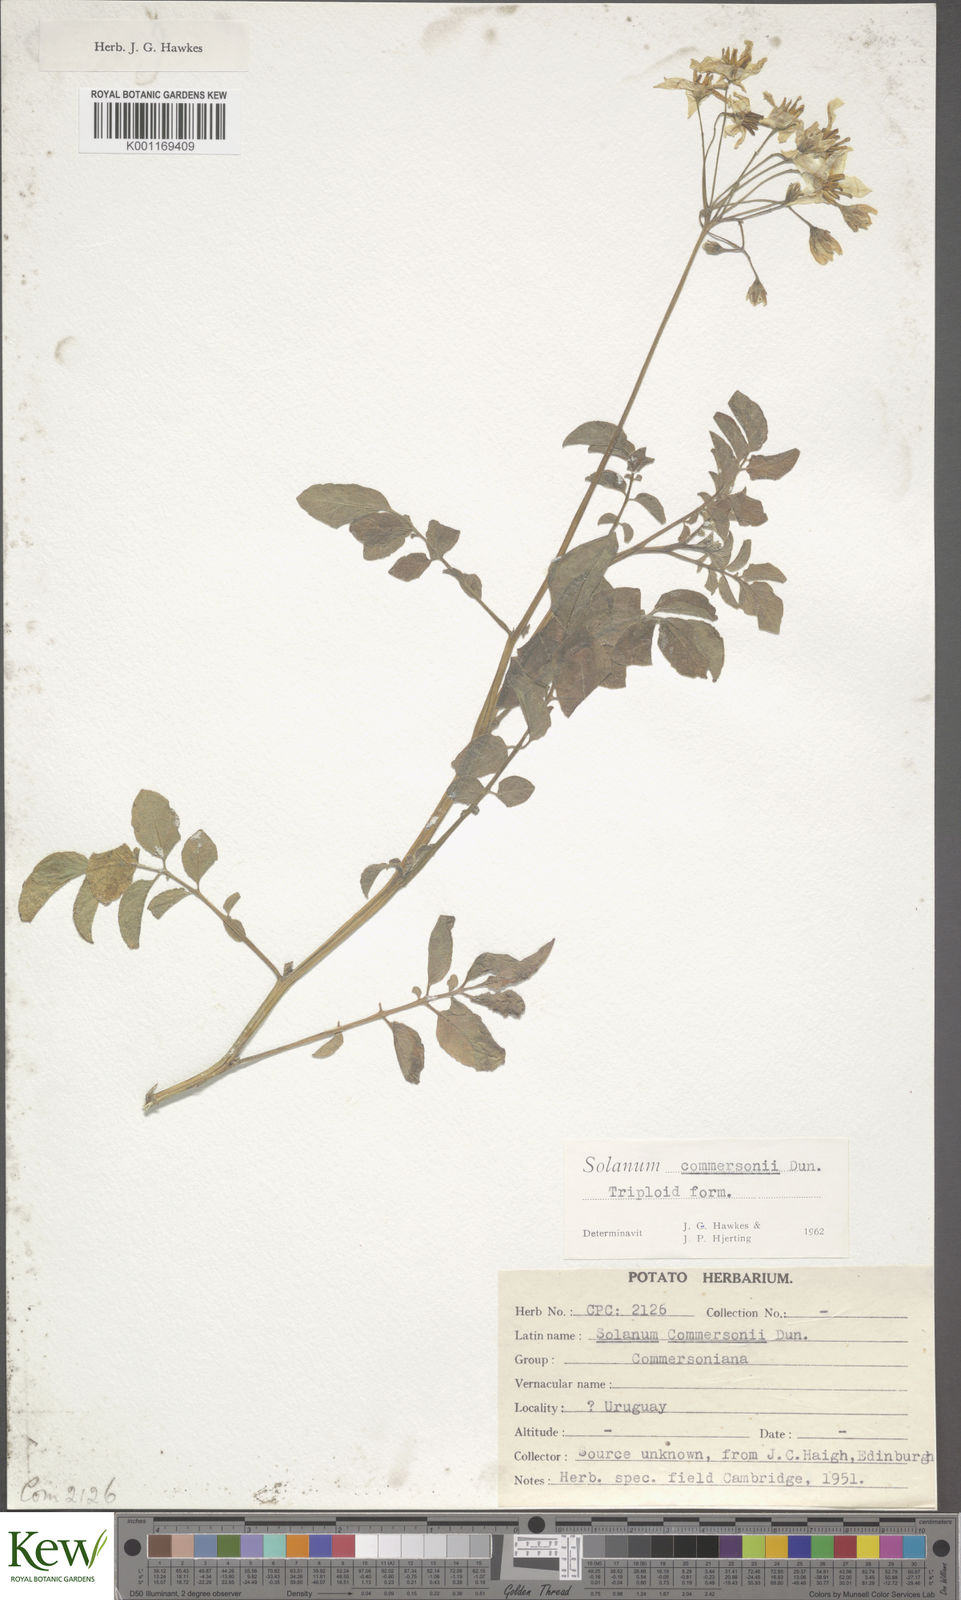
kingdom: Plantae
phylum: Tracheophyta
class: Magnoliopsida
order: Solanales
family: Solanaceae
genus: Solanum
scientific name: Solanum commersonii
